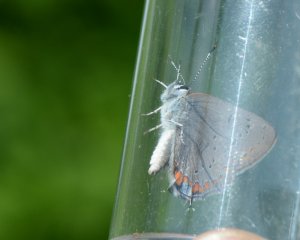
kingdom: Animalia
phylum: Arthropoda
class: Insecta
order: Lepidoptera
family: Lycaenidae
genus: Strymon
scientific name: Strymon acadica
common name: Acadian Hairstreak
